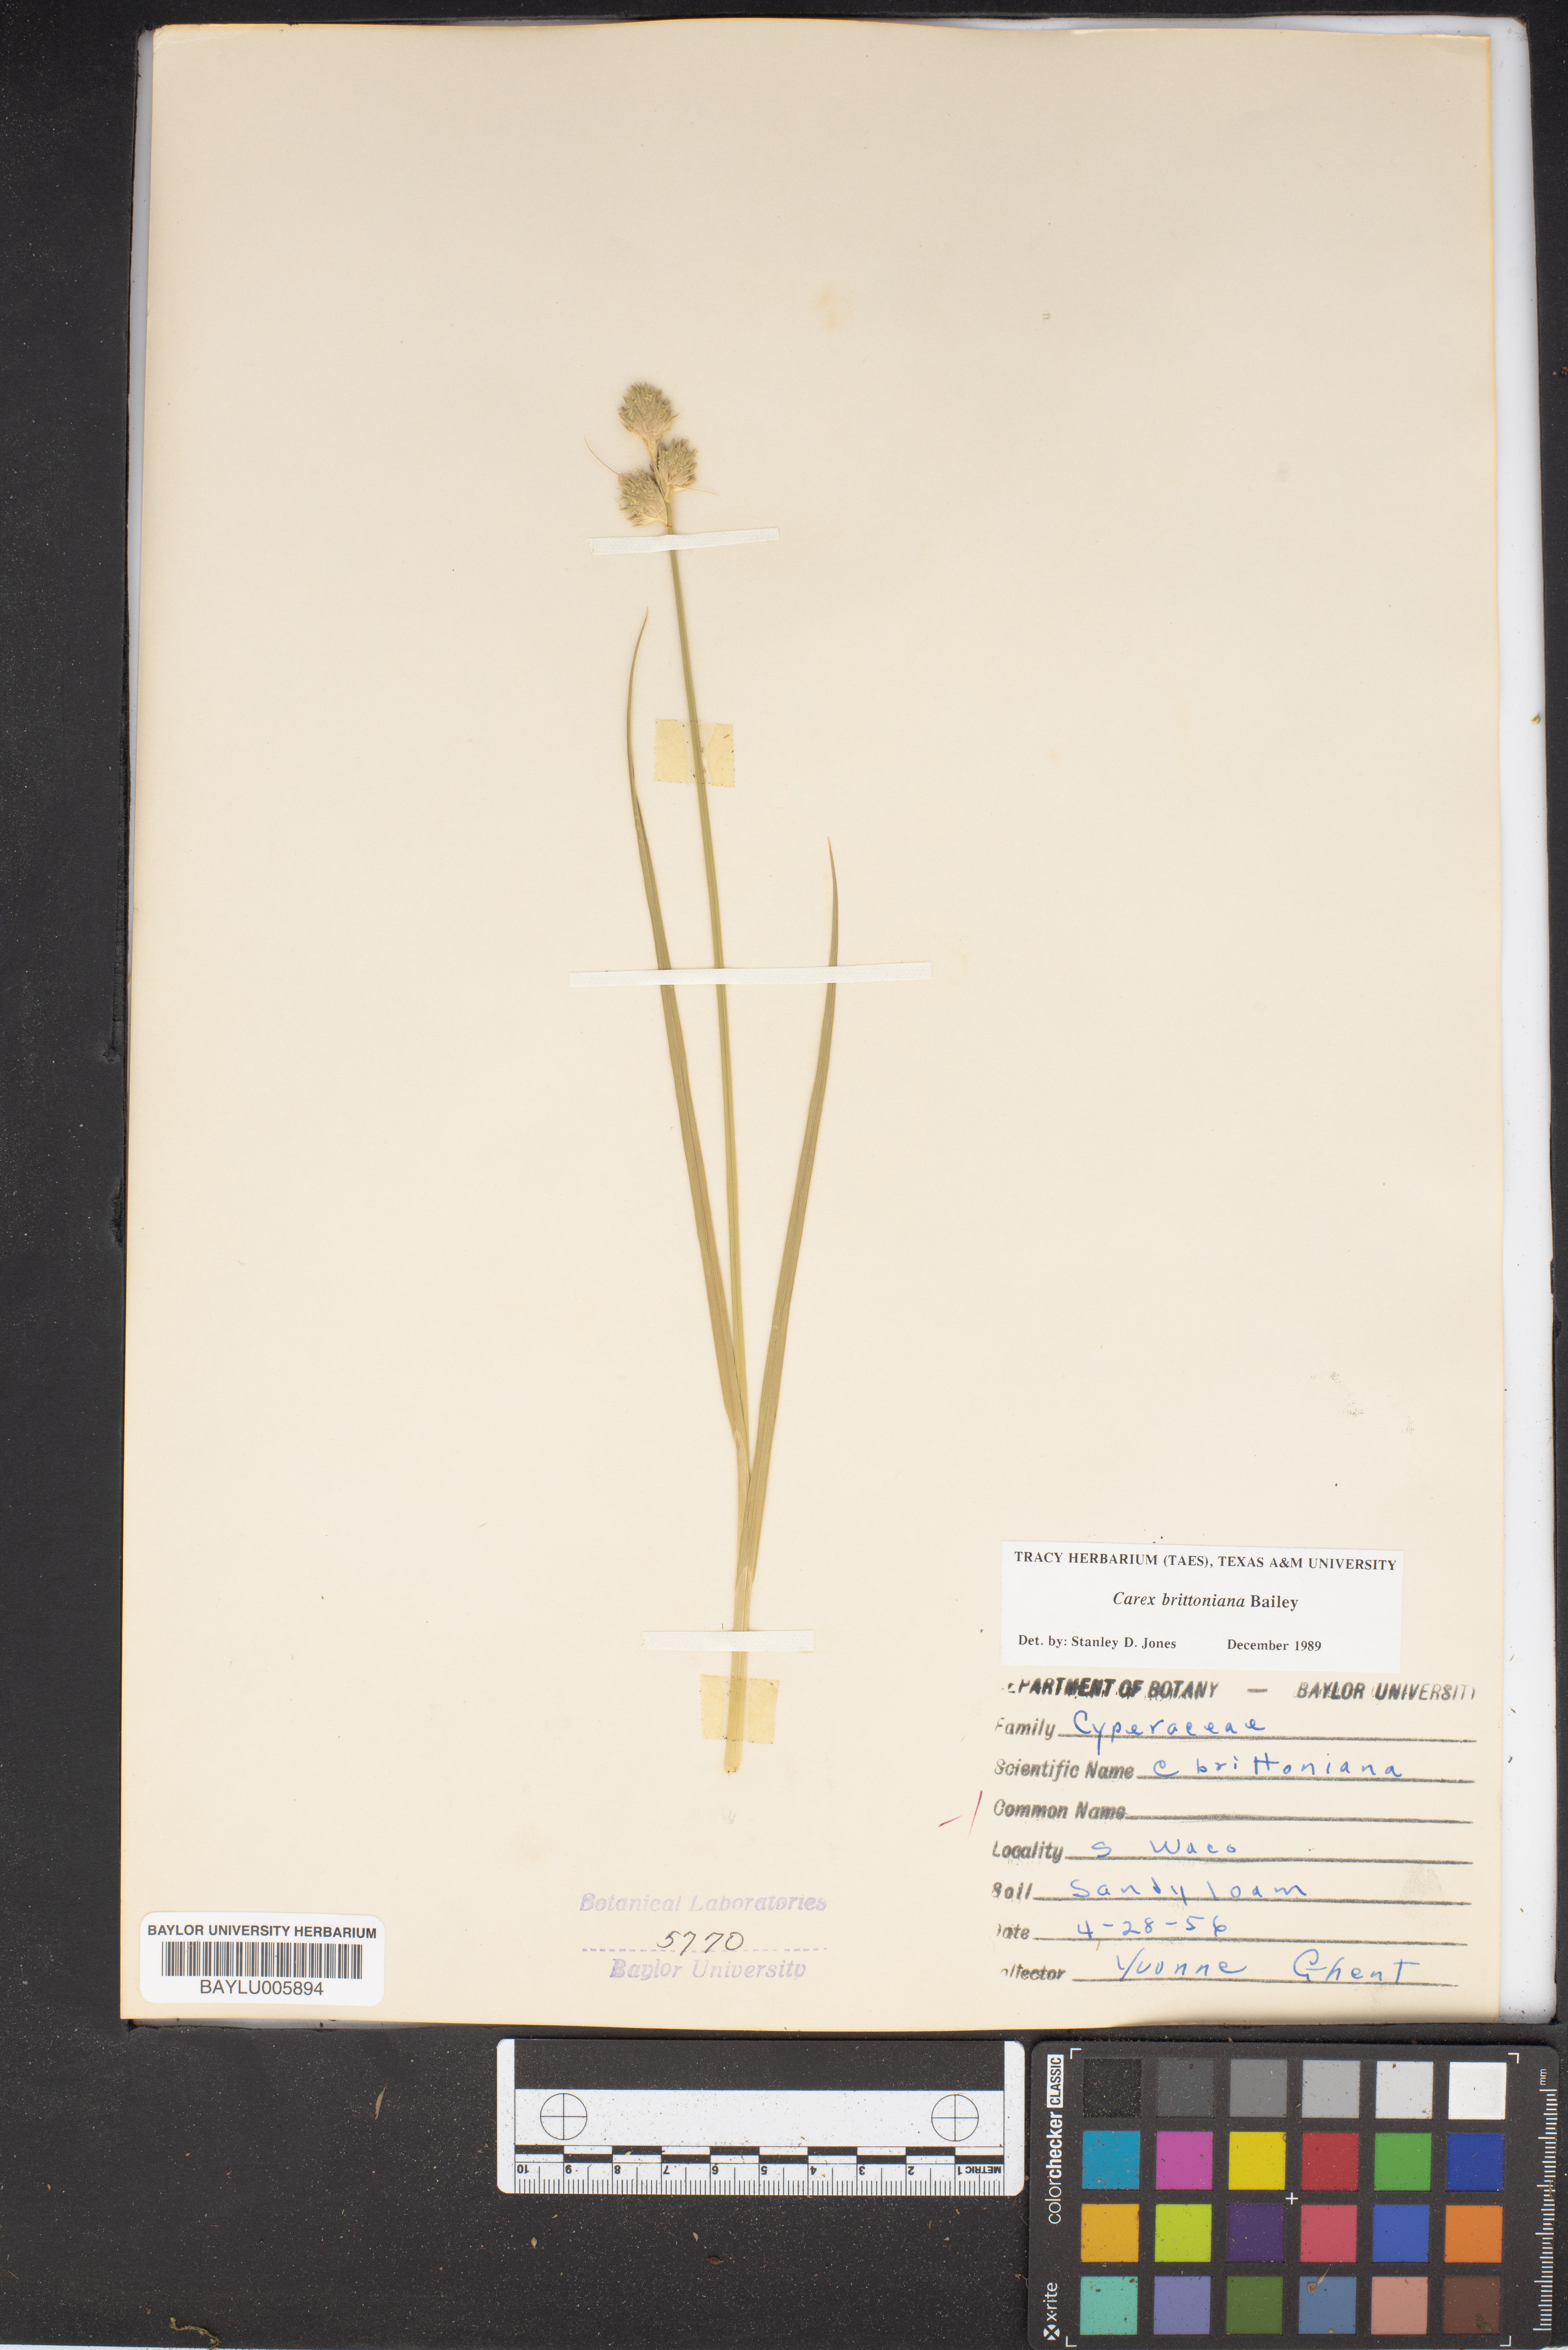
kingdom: Plantae
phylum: Tracheophyta
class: Liliopsida
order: Poales
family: Cyperaceae
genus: Carex
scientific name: Carex tetrastachya
